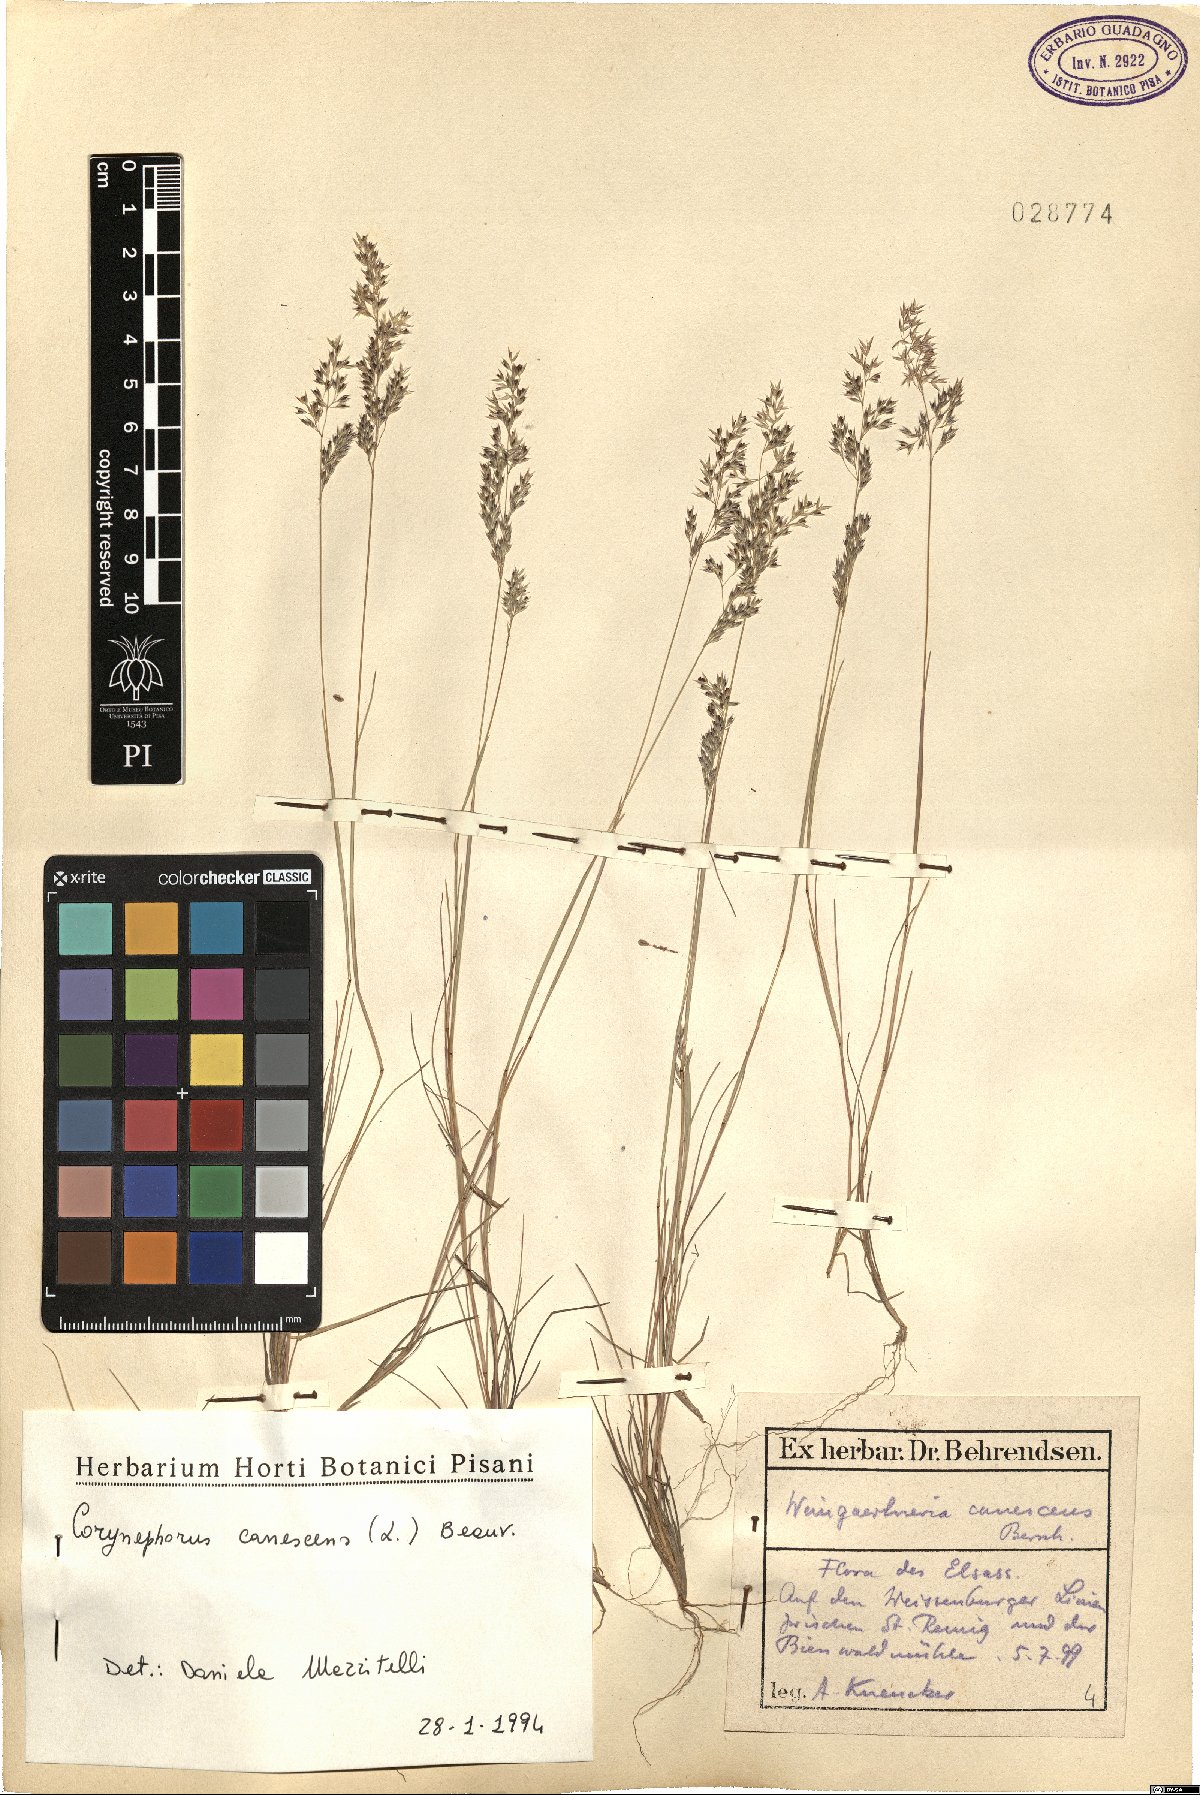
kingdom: Plantae
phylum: Tracheophyta
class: Liliopsida
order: Poales
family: Poaceae
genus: Corynephorus
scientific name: Corynephorus canescens
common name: Grey hair-grass
